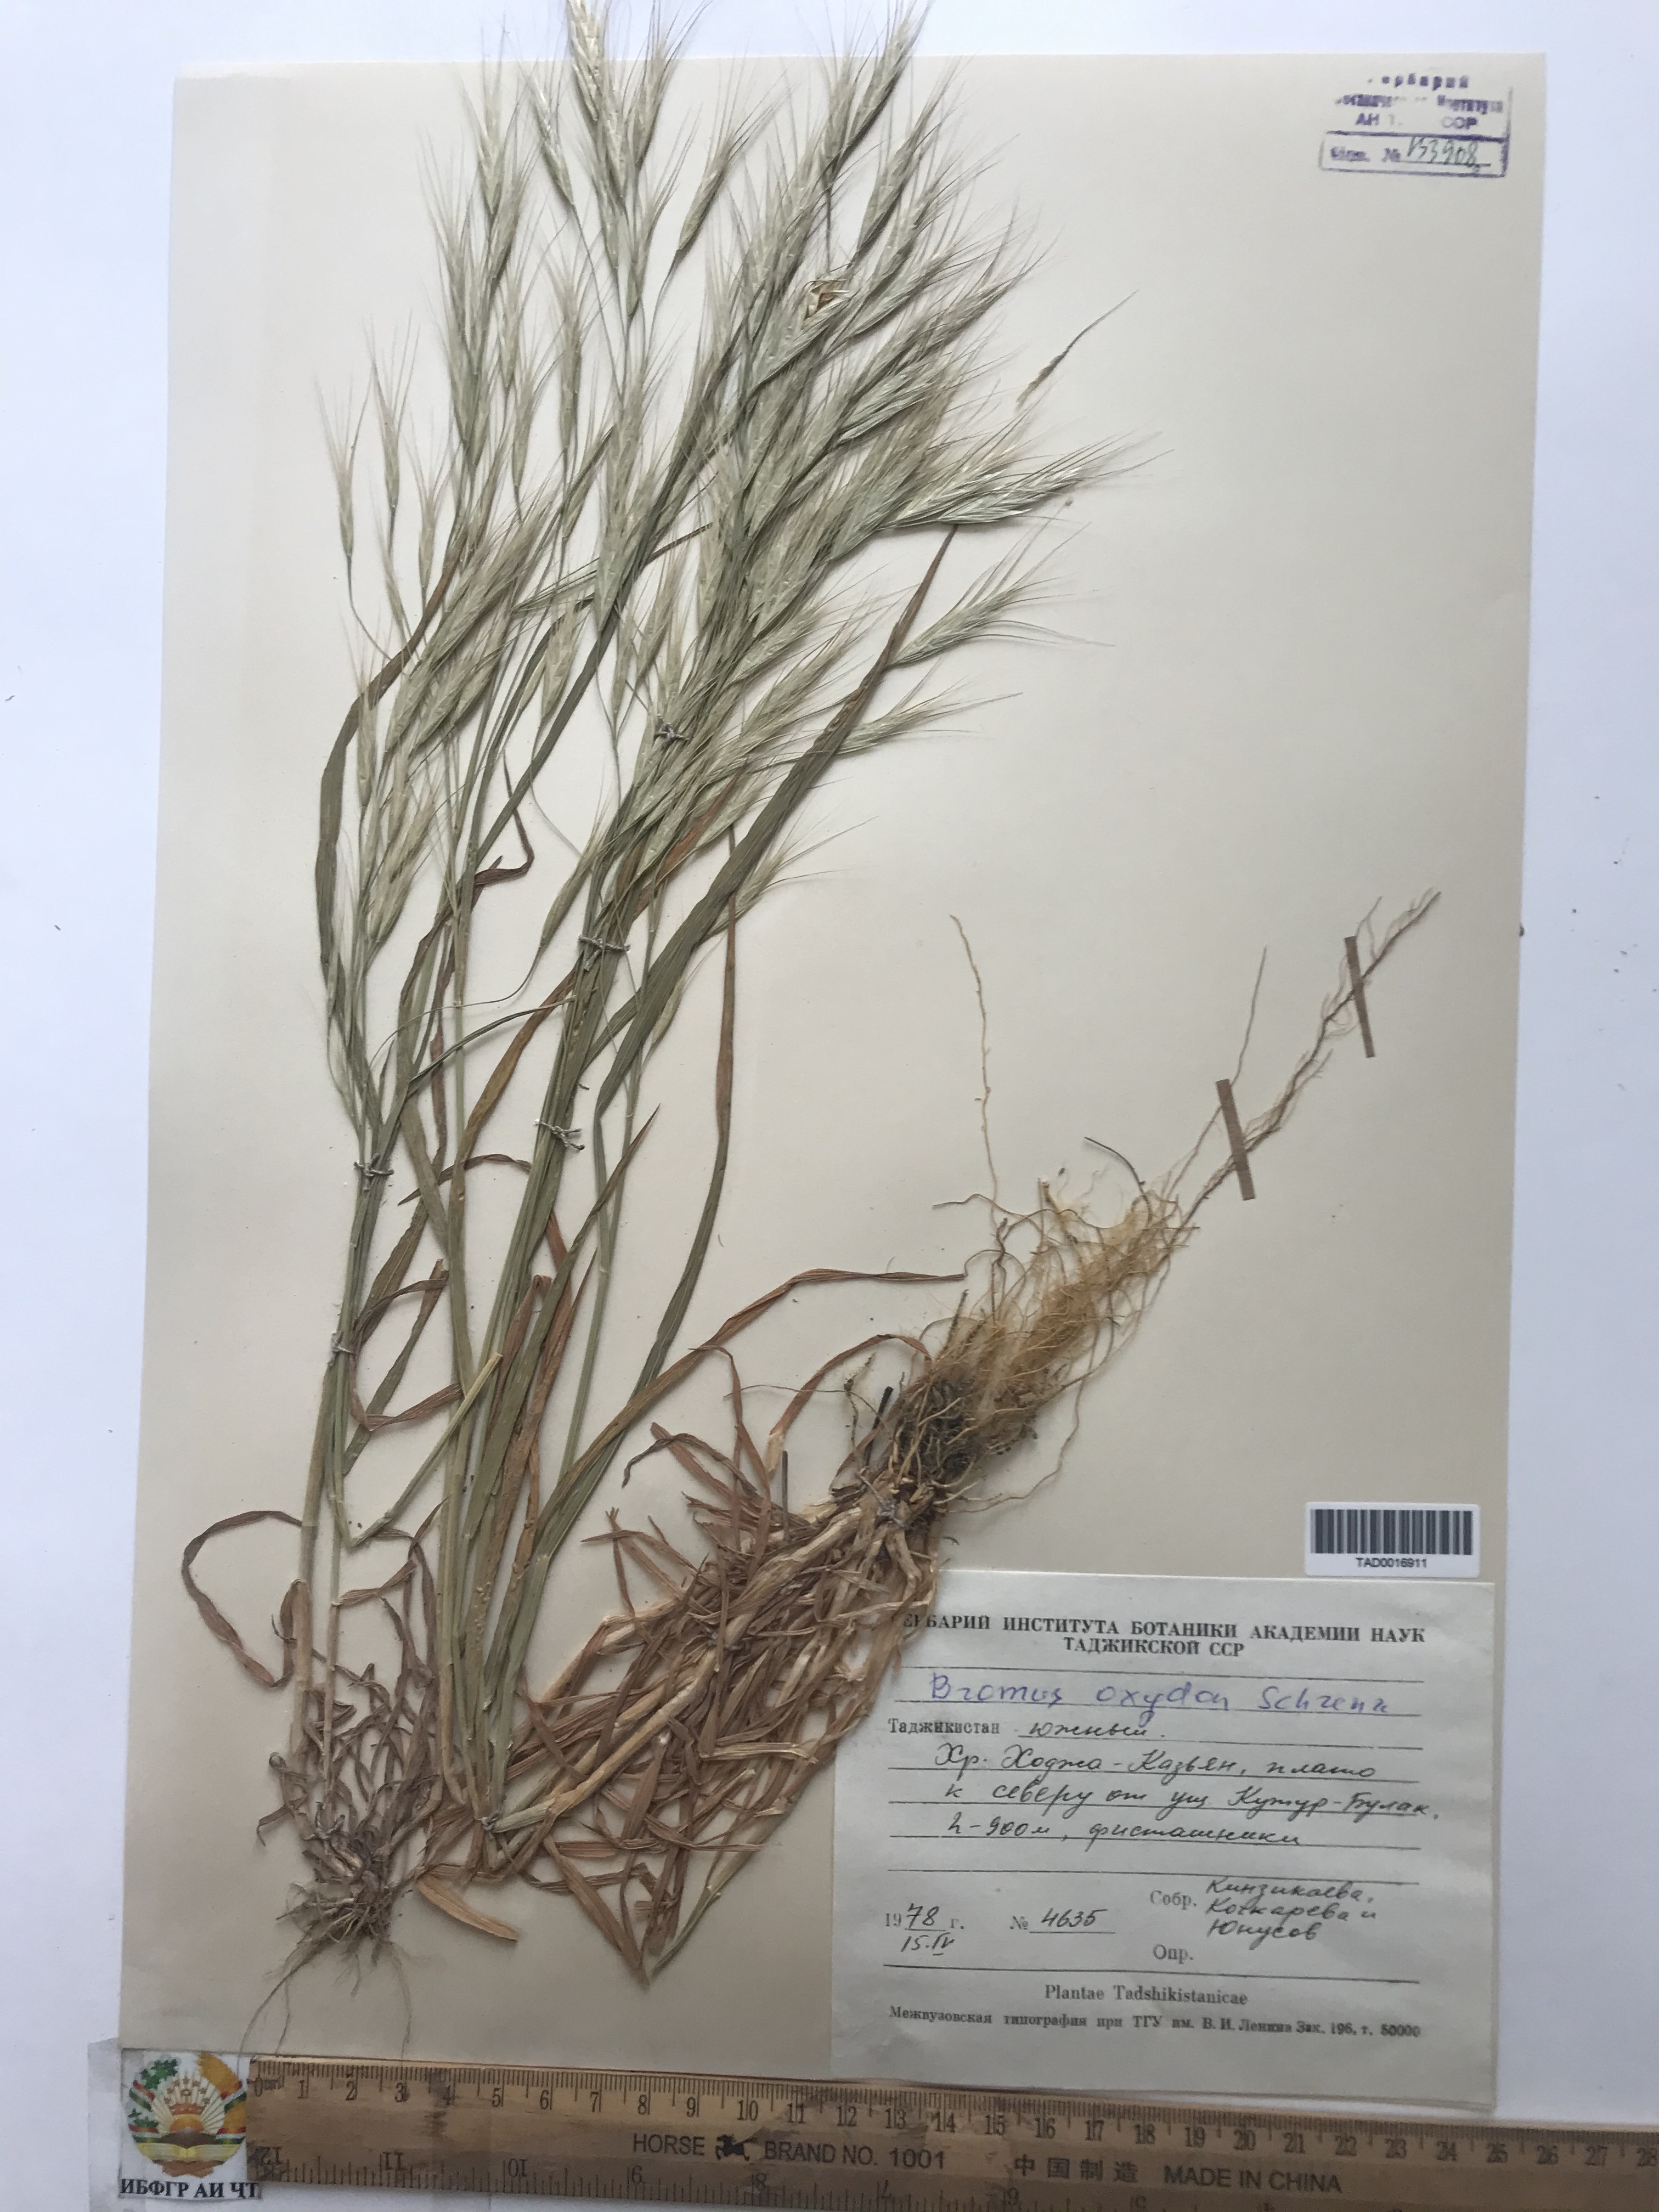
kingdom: Plantae
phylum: Tracheophyta
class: Liliopsida
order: Poales
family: Poaceae
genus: Bromus
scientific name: Bromus oxyodon
